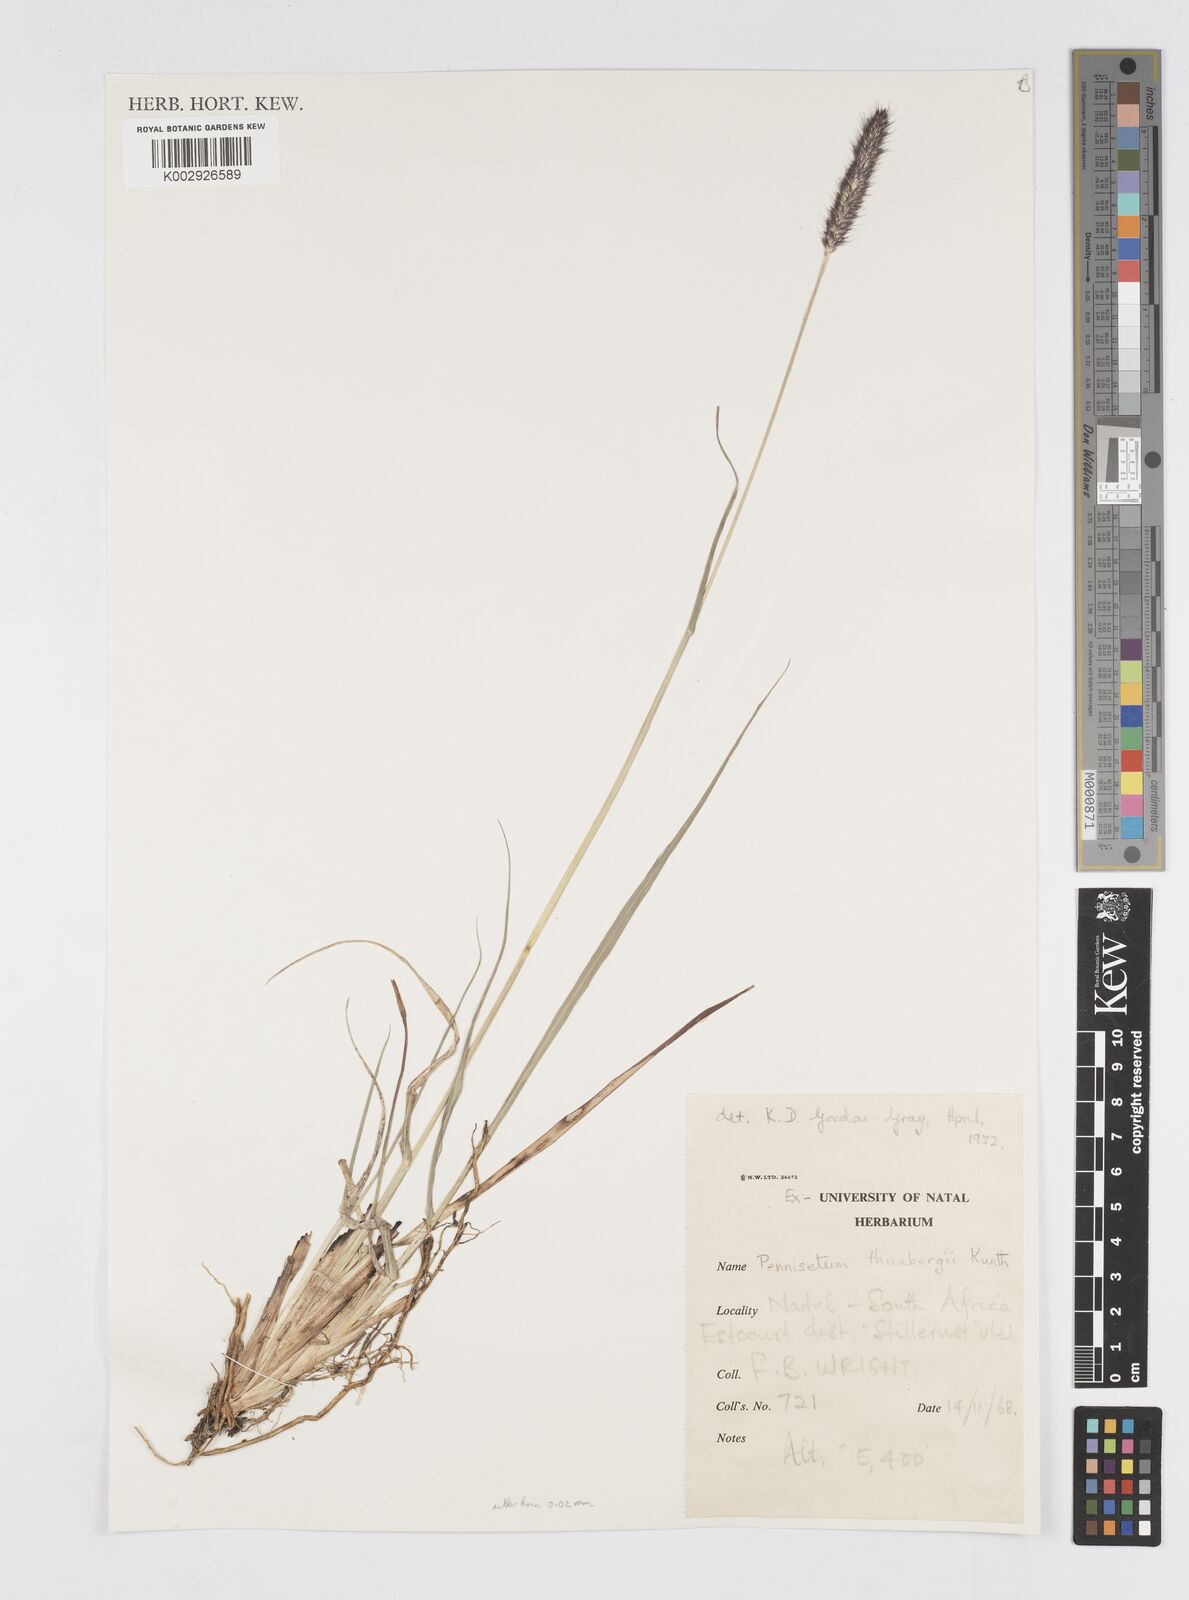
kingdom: Plantae
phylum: Tracheophyta
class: Liliopsida
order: Poales
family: Poaceae
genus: Cenchrus
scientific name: Cenchrus geniculatus
